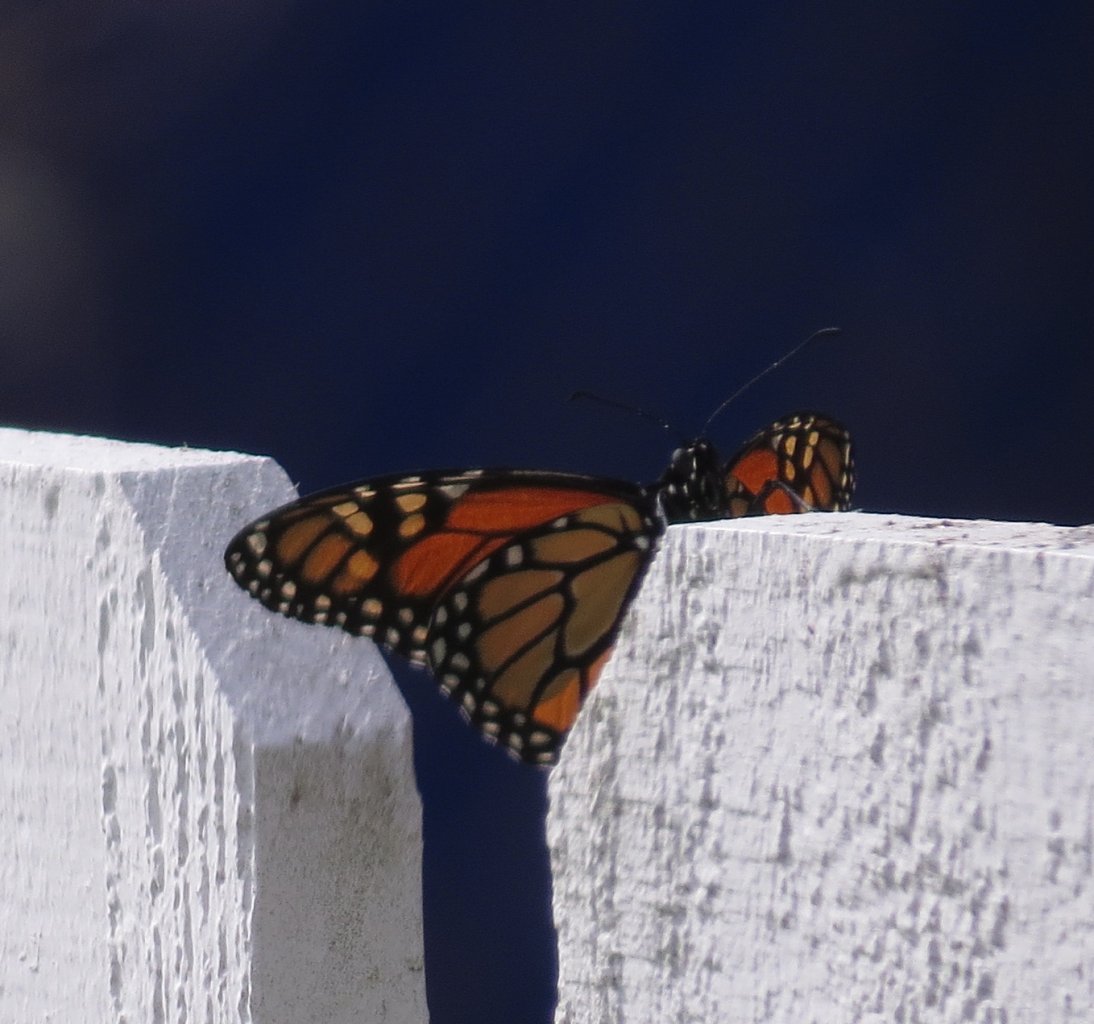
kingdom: Animalia
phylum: Arthropoda
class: Insecta
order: Lepidoptera
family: Nymphalidae
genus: Danaus
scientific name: Danaus plexippus
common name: Monarch
